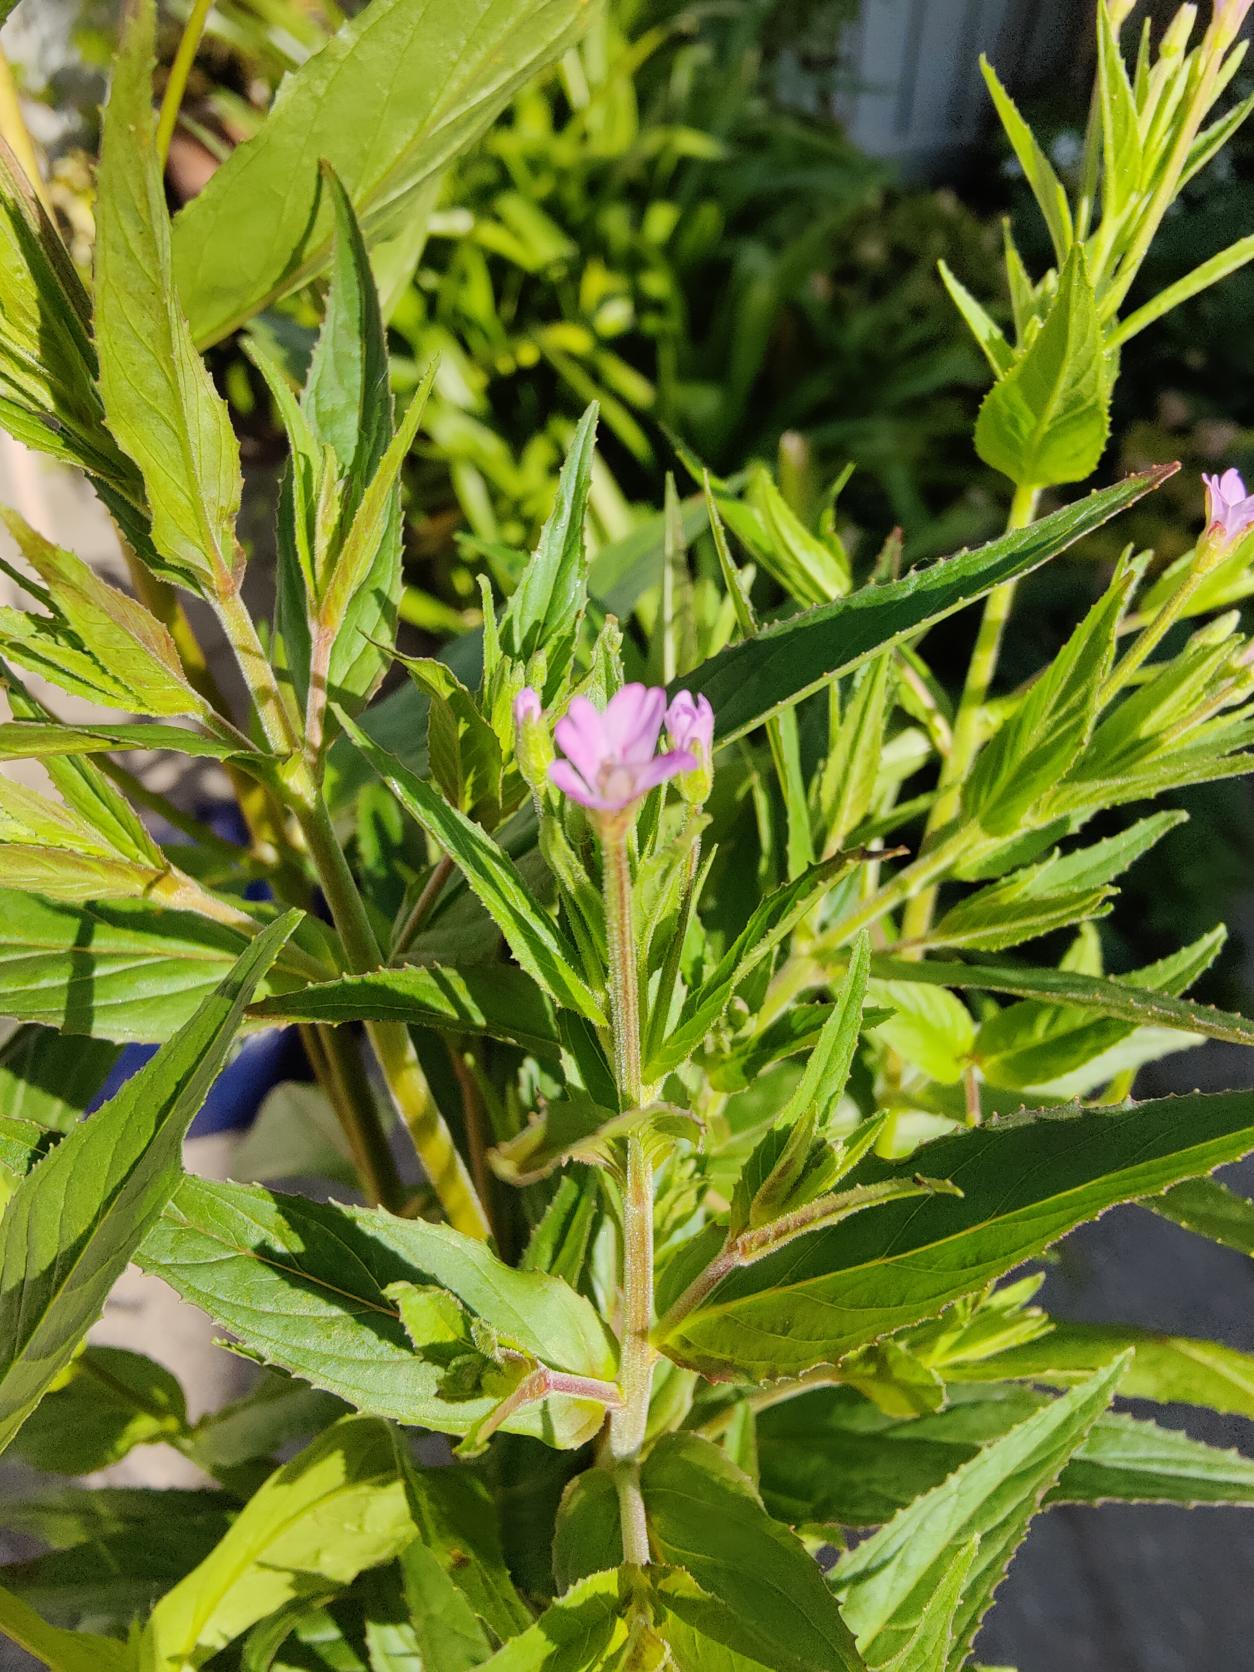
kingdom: Plantae
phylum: Tracheophyta
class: Magnoliopsida
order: Myrtales
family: Onagraceae
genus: Epilobium
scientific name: Epilobium ciliatum
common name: Kirtlet dueurt
